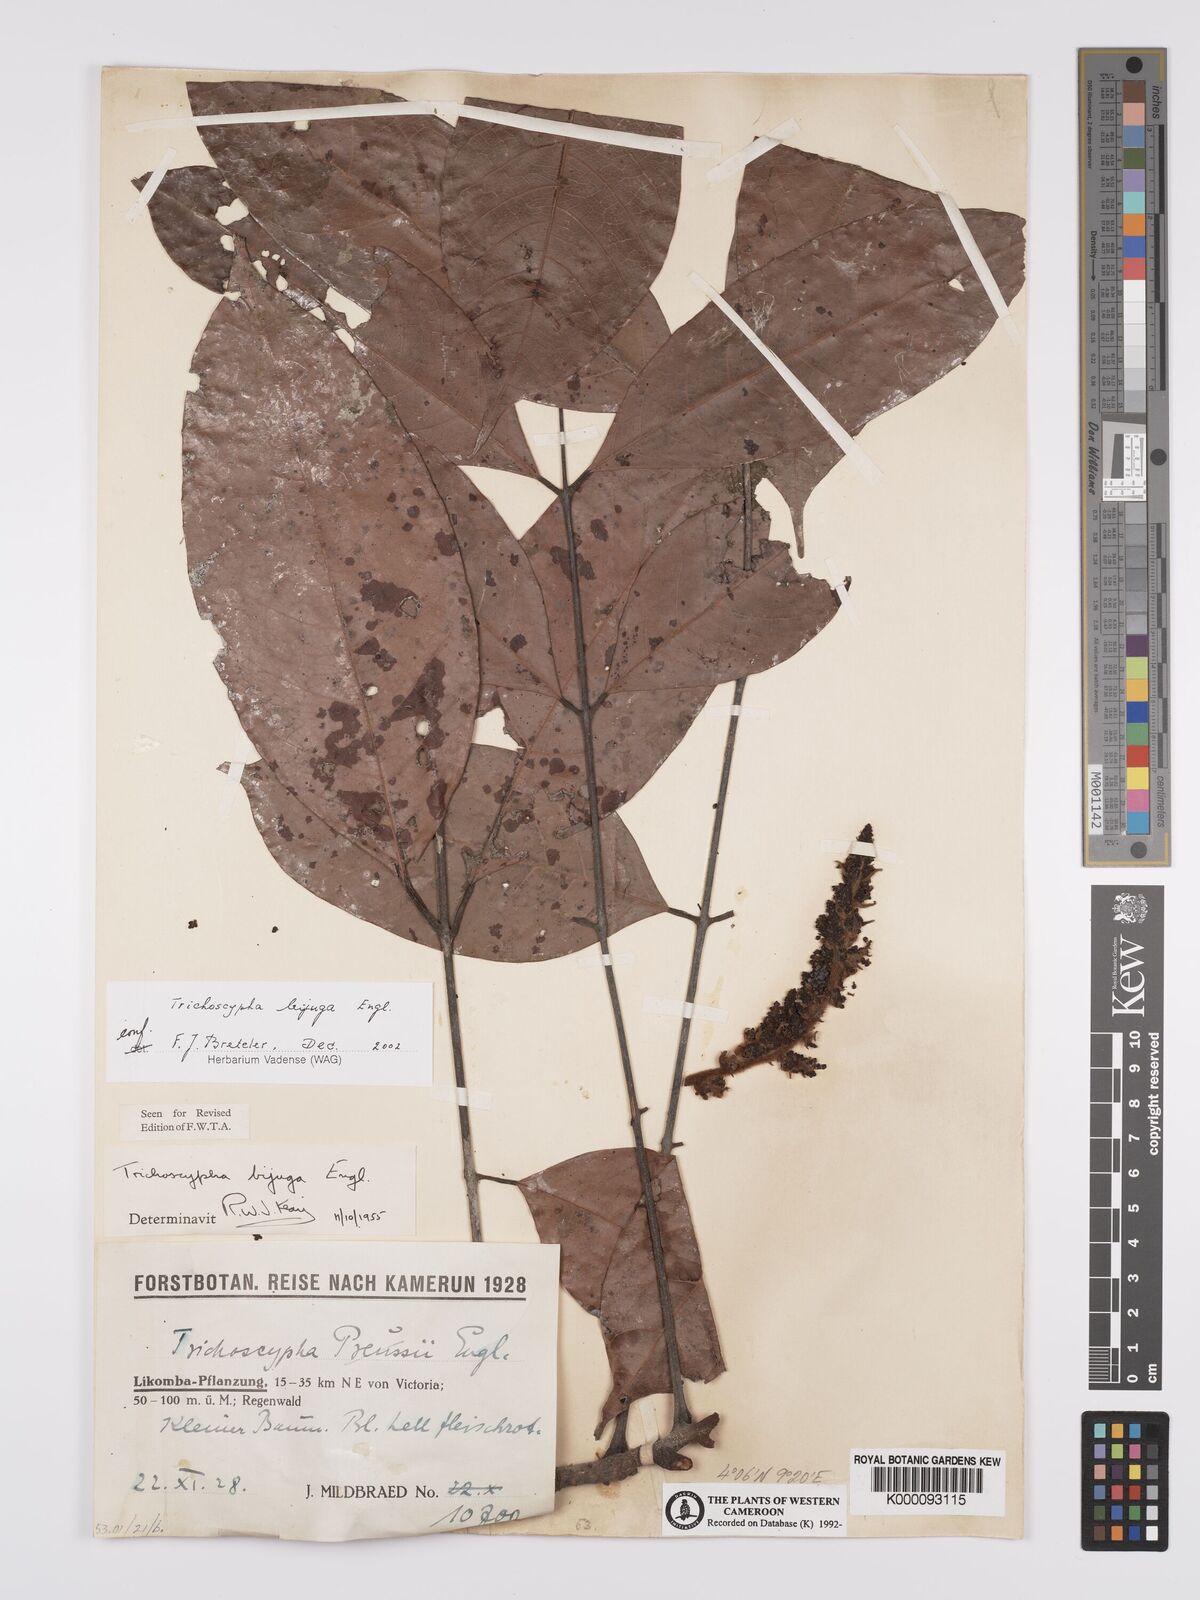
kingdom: Plantae
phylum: Tracheophyta
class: Magnoliopsida
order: Sapindales
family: Anacardiaceae
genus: Trichoscypha
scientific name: Trichoscypha bijuga
